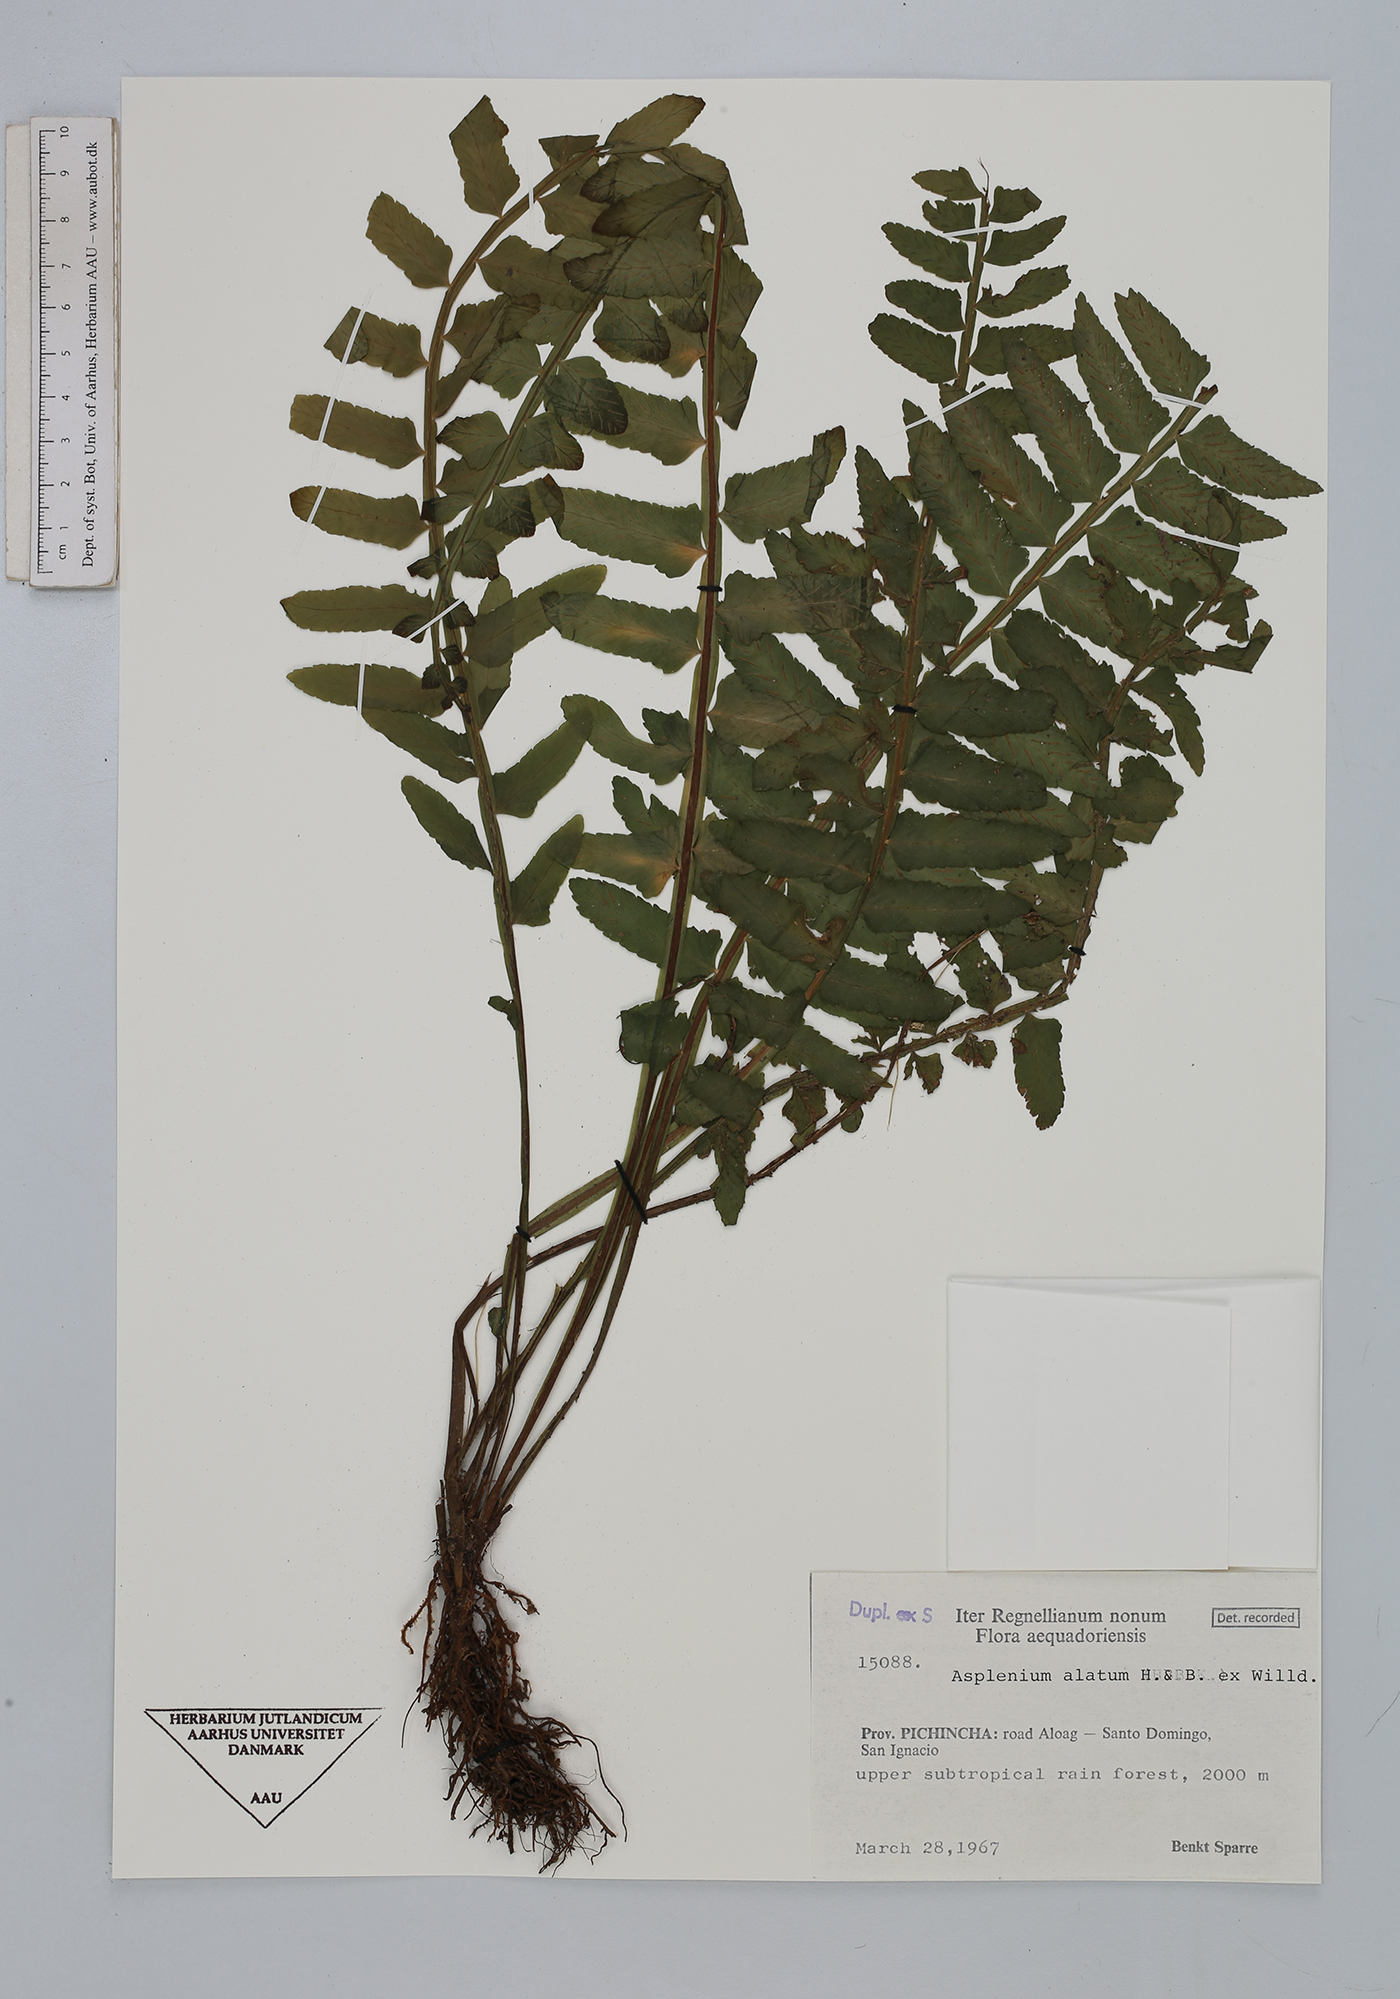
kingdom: Plantae
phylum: Tracheophyta
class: Polypodiopsida
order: Polypodiales
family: Aspleniaceae
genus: Asplenium
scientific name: Asplenium alatum
